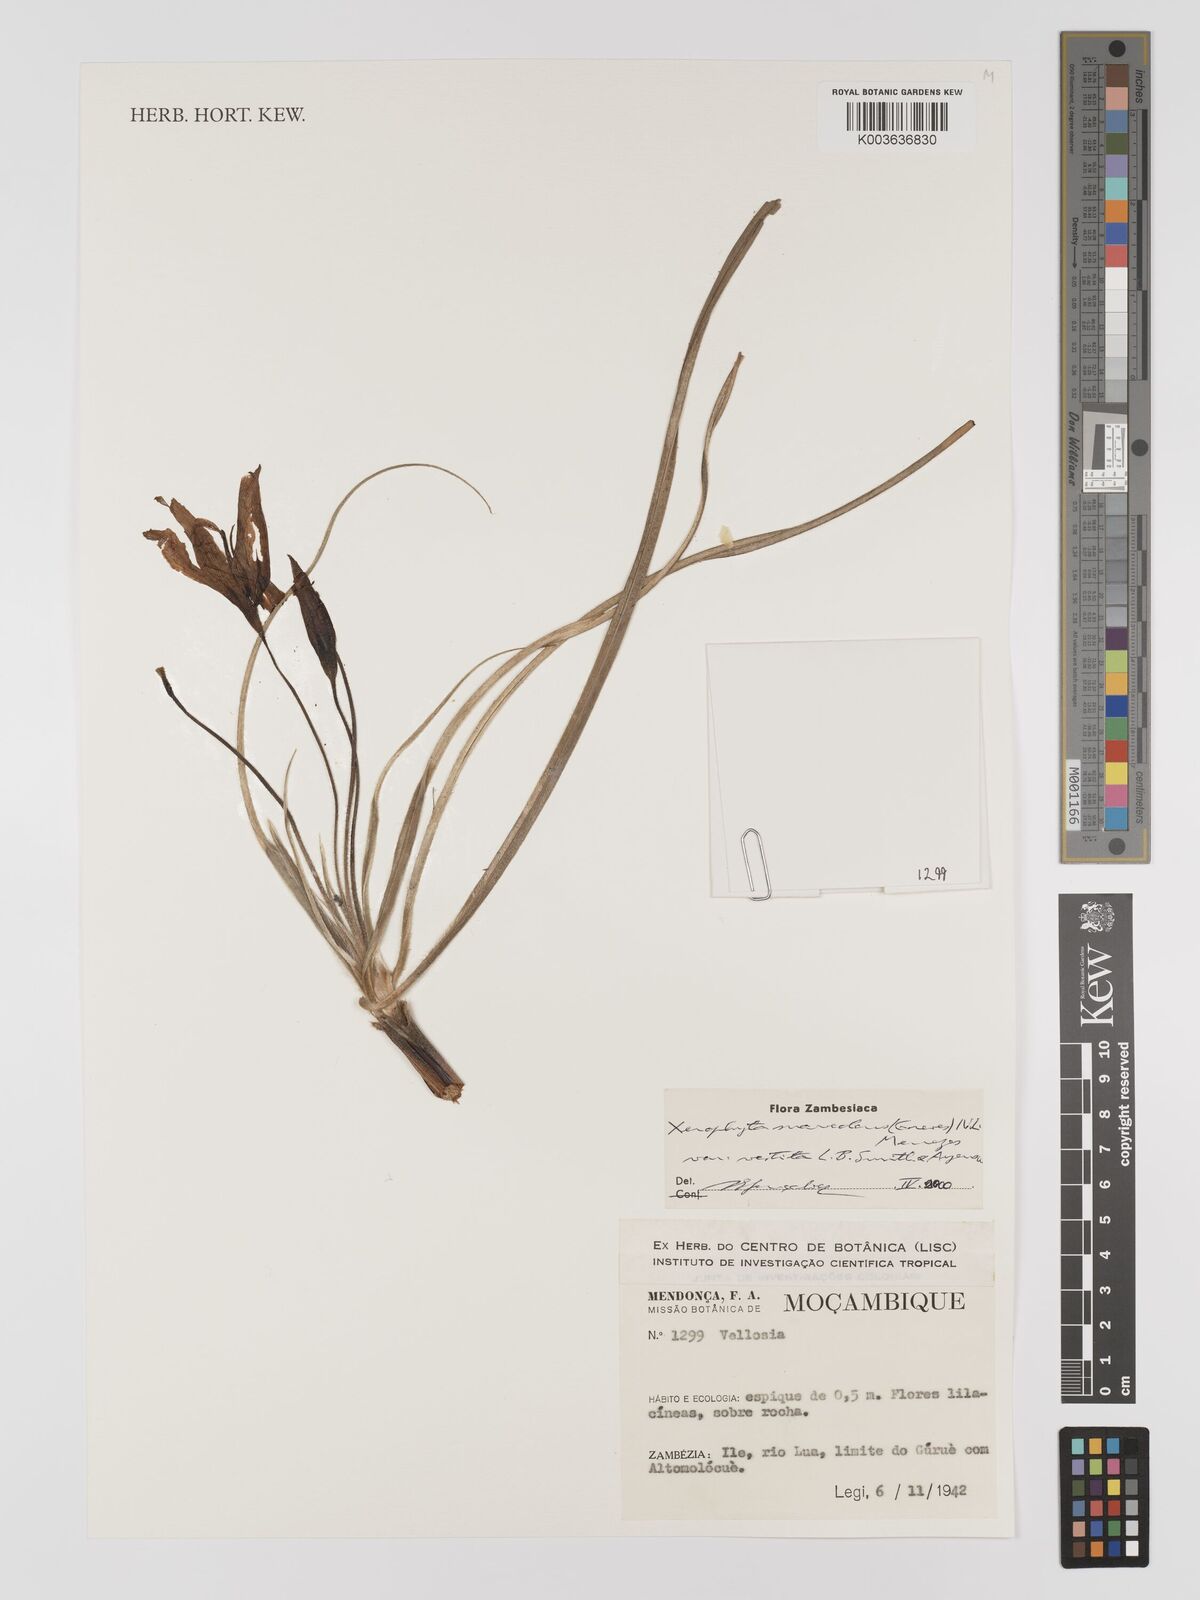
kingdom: Plantae
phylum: Tracheophyta
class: Liliopsida
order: Pandanales
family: Velloziaceae
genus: Xerophyta
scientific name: Xerophyta suaveolens
